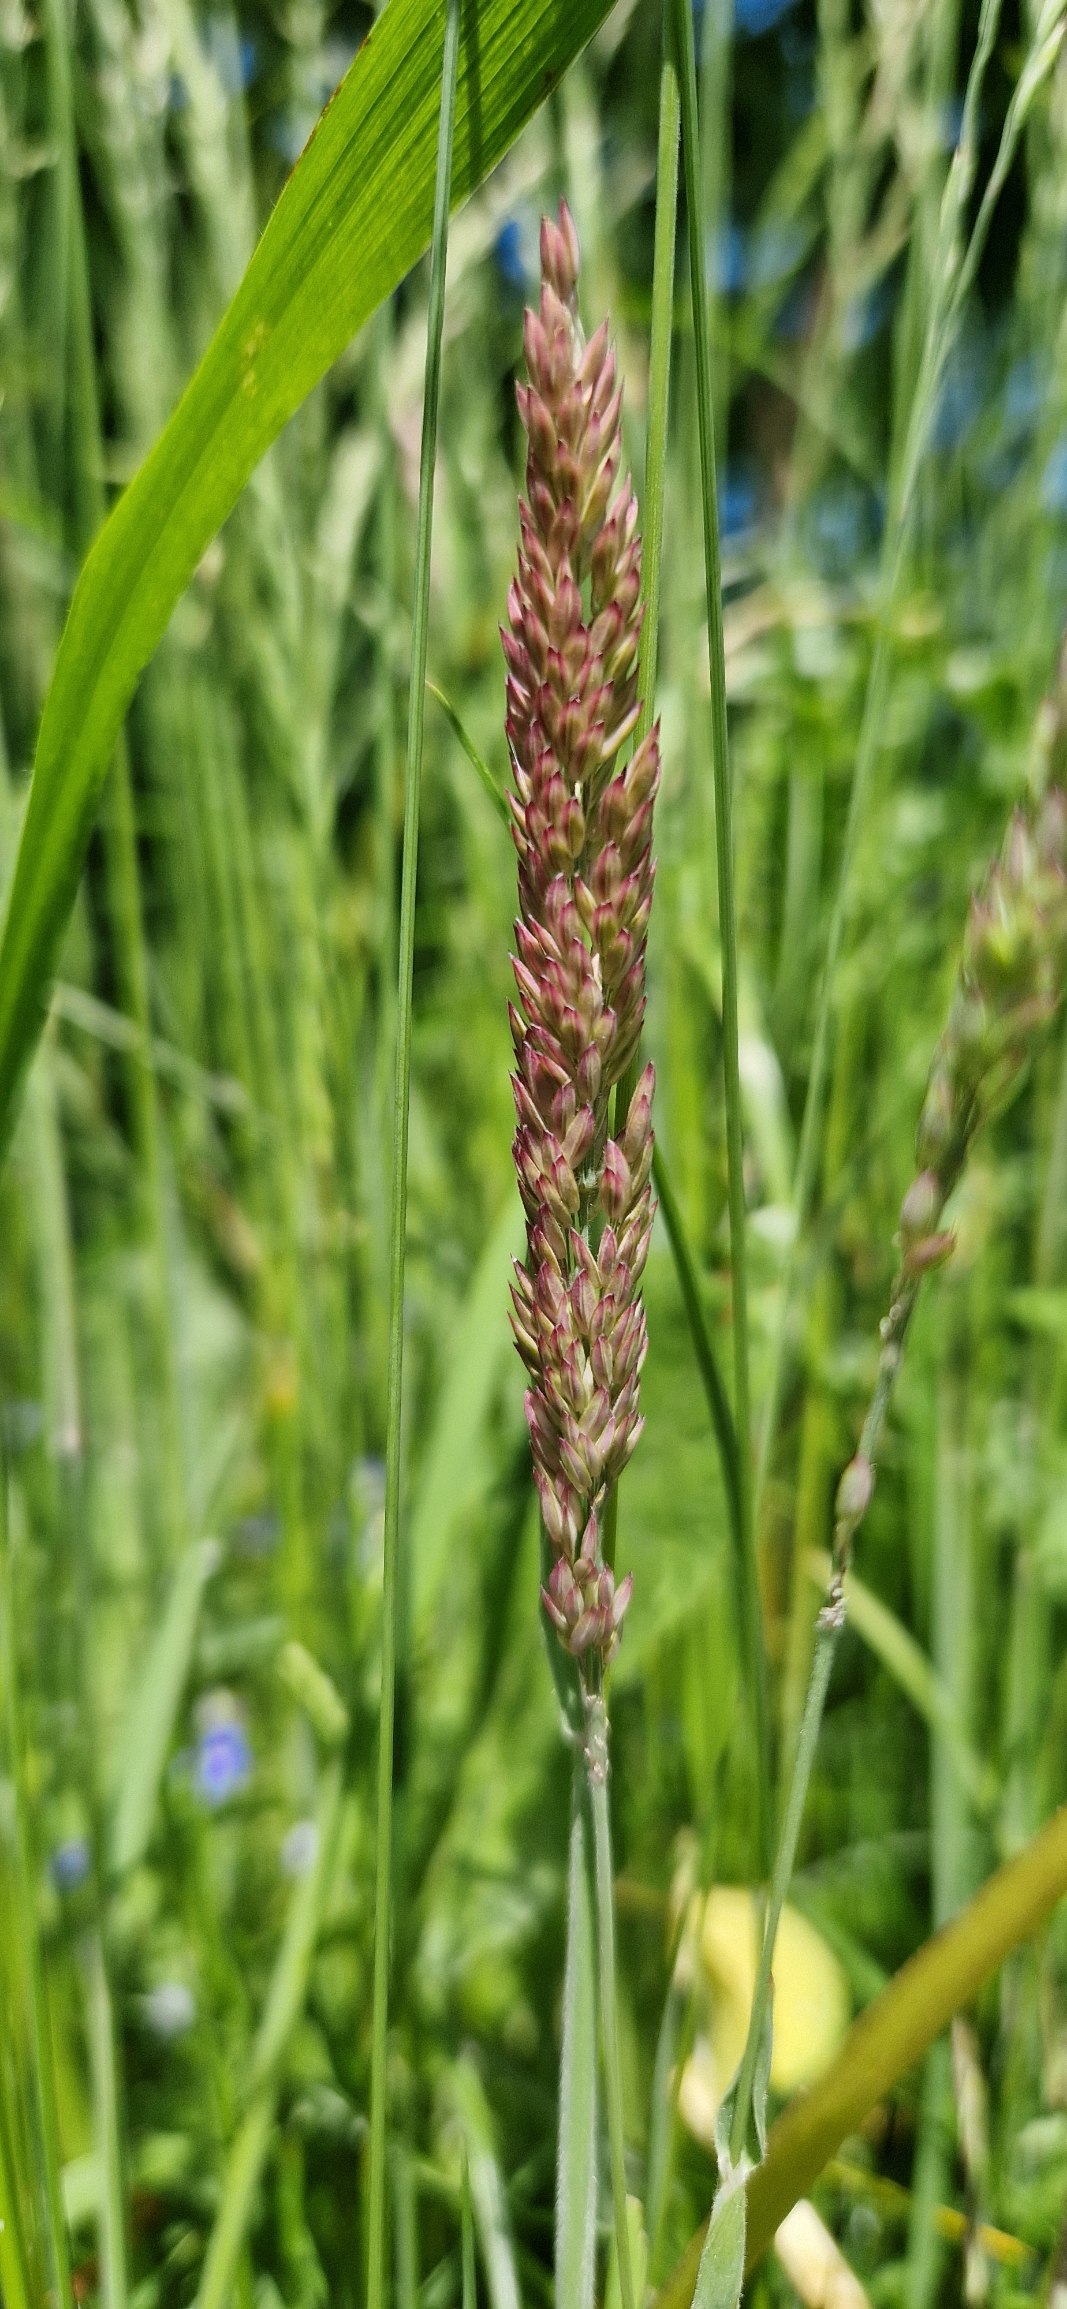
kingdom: Plantae
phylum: Tracheophyta
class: Liliopsida
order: Poales
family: Poaceae
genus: Holcus
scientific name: Holcus lanatus
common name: Fløjlsgræs
